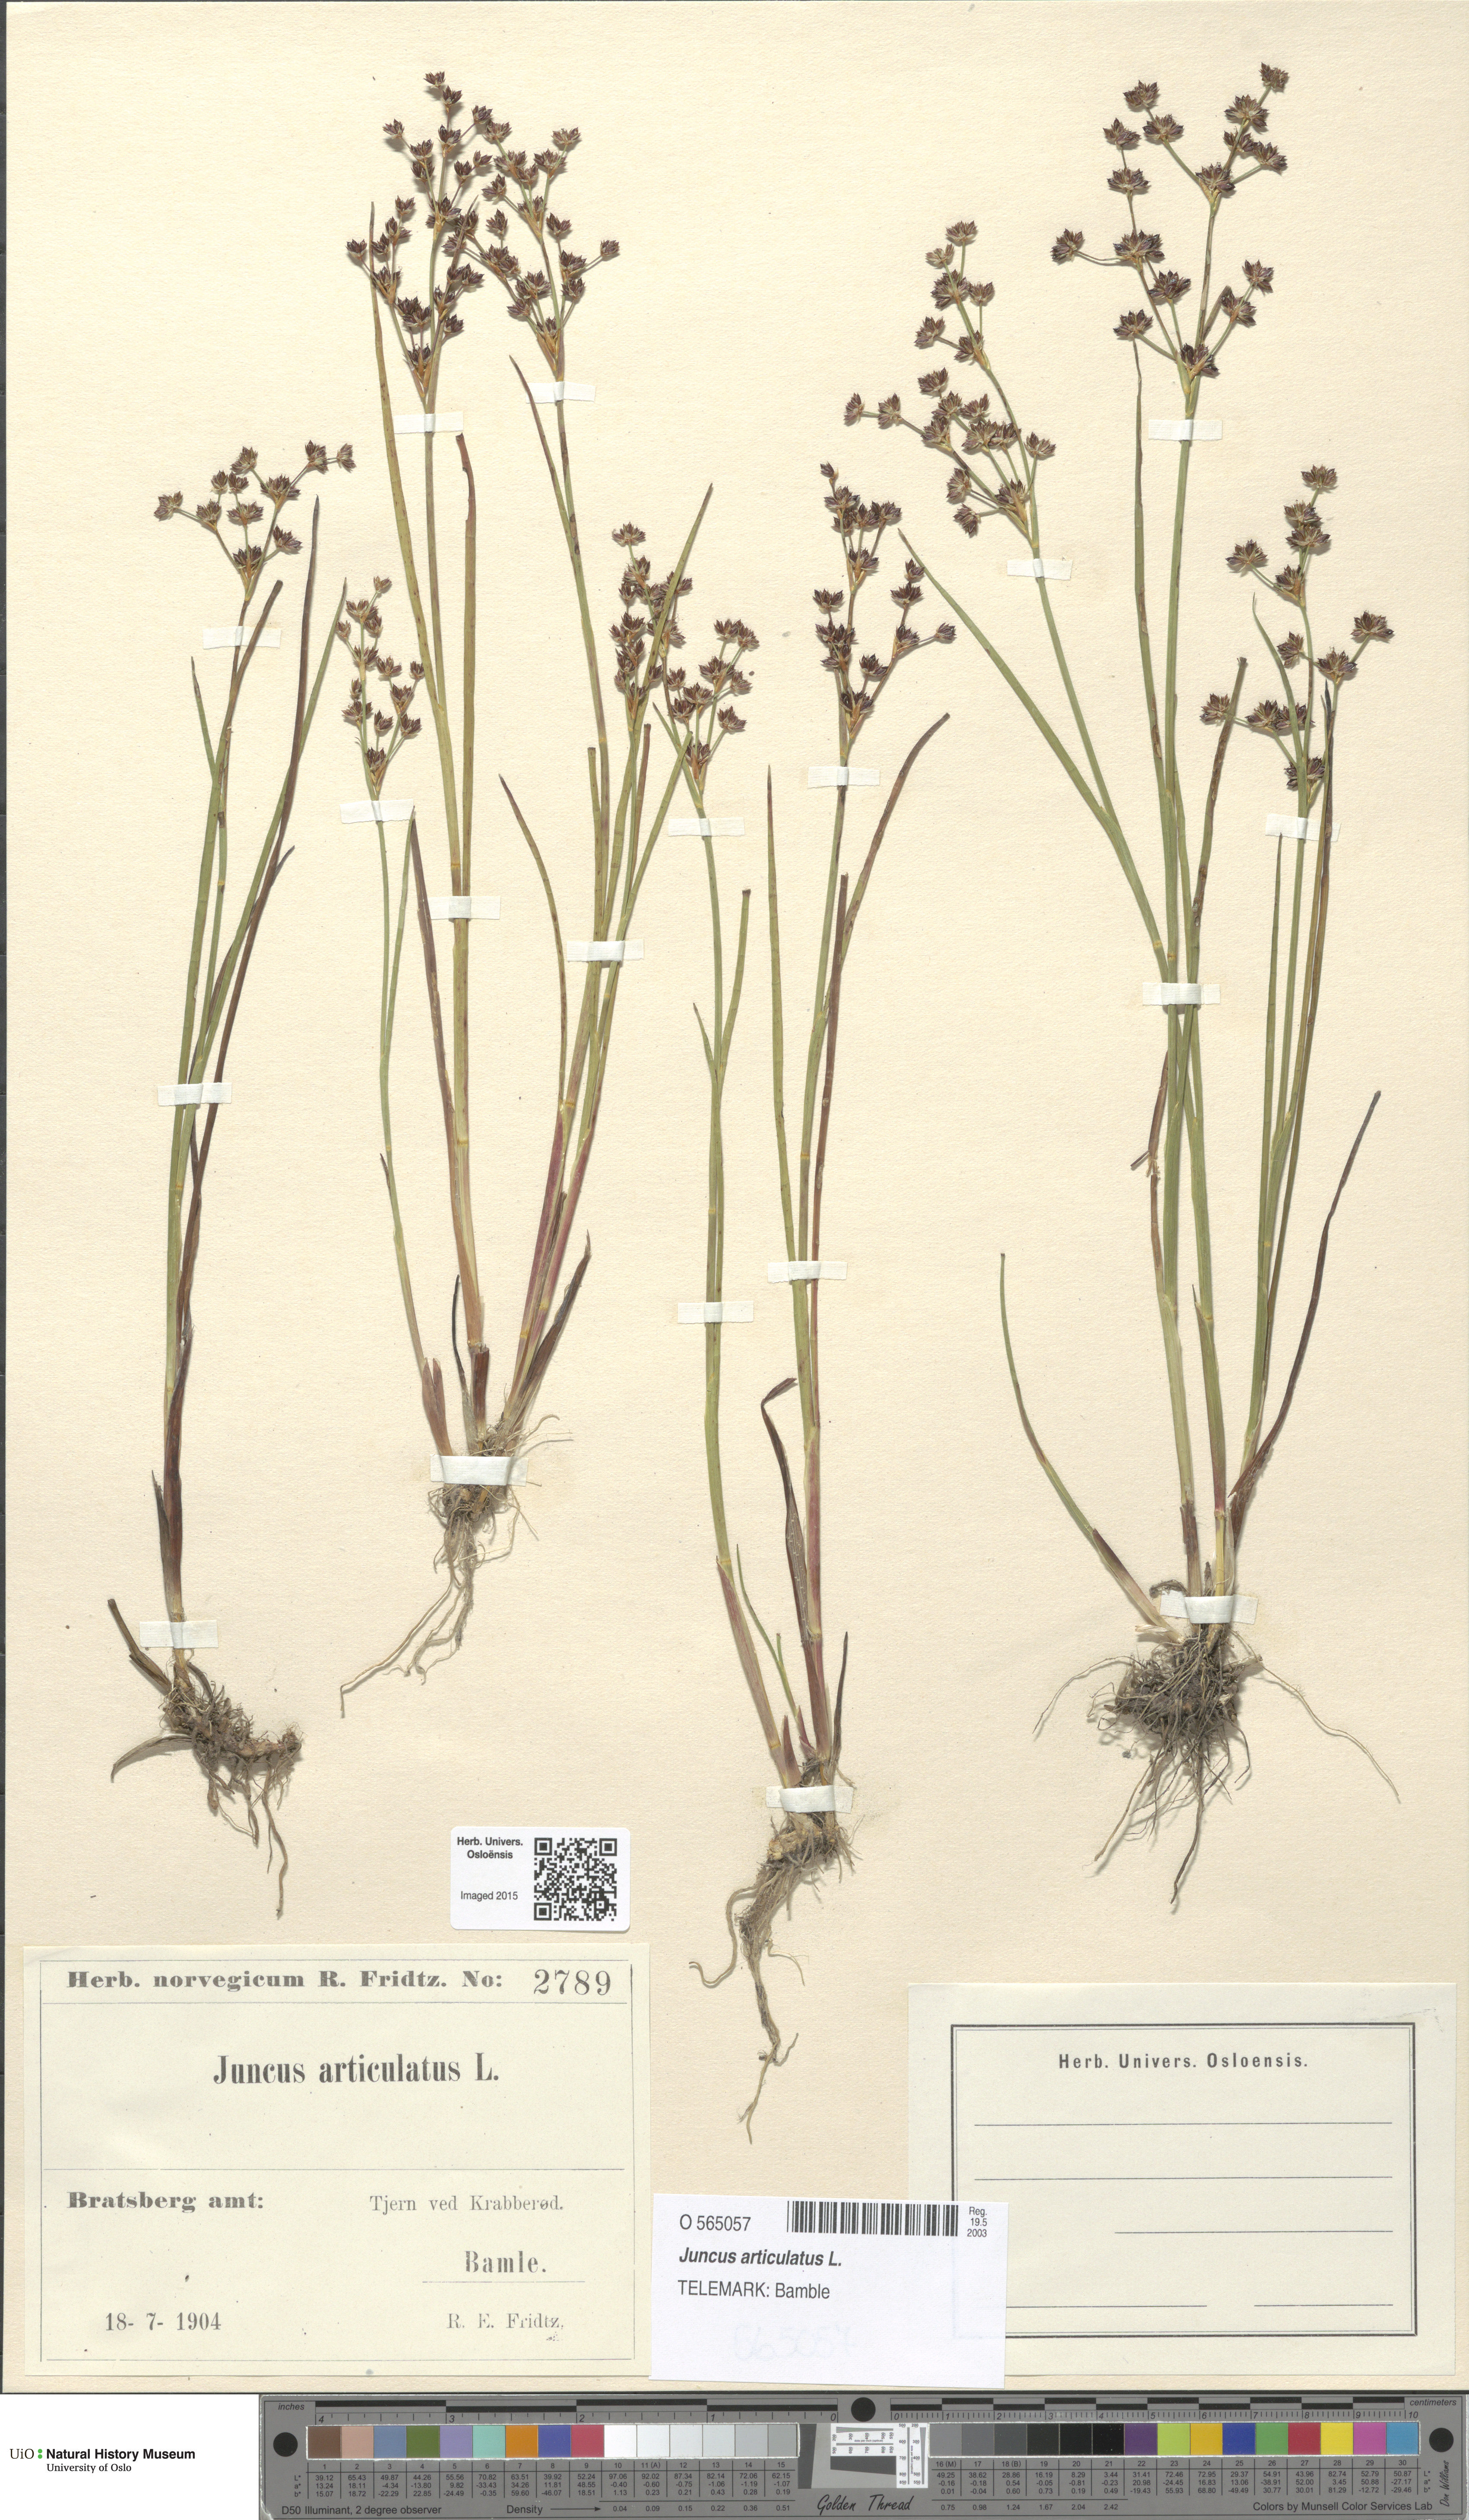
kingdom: Plantae
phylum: Tracheophyta
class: Liliopsida
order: Poales
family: Juncaceae
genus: Juncus
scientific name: Juncus articulatus
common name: Jointed rush
